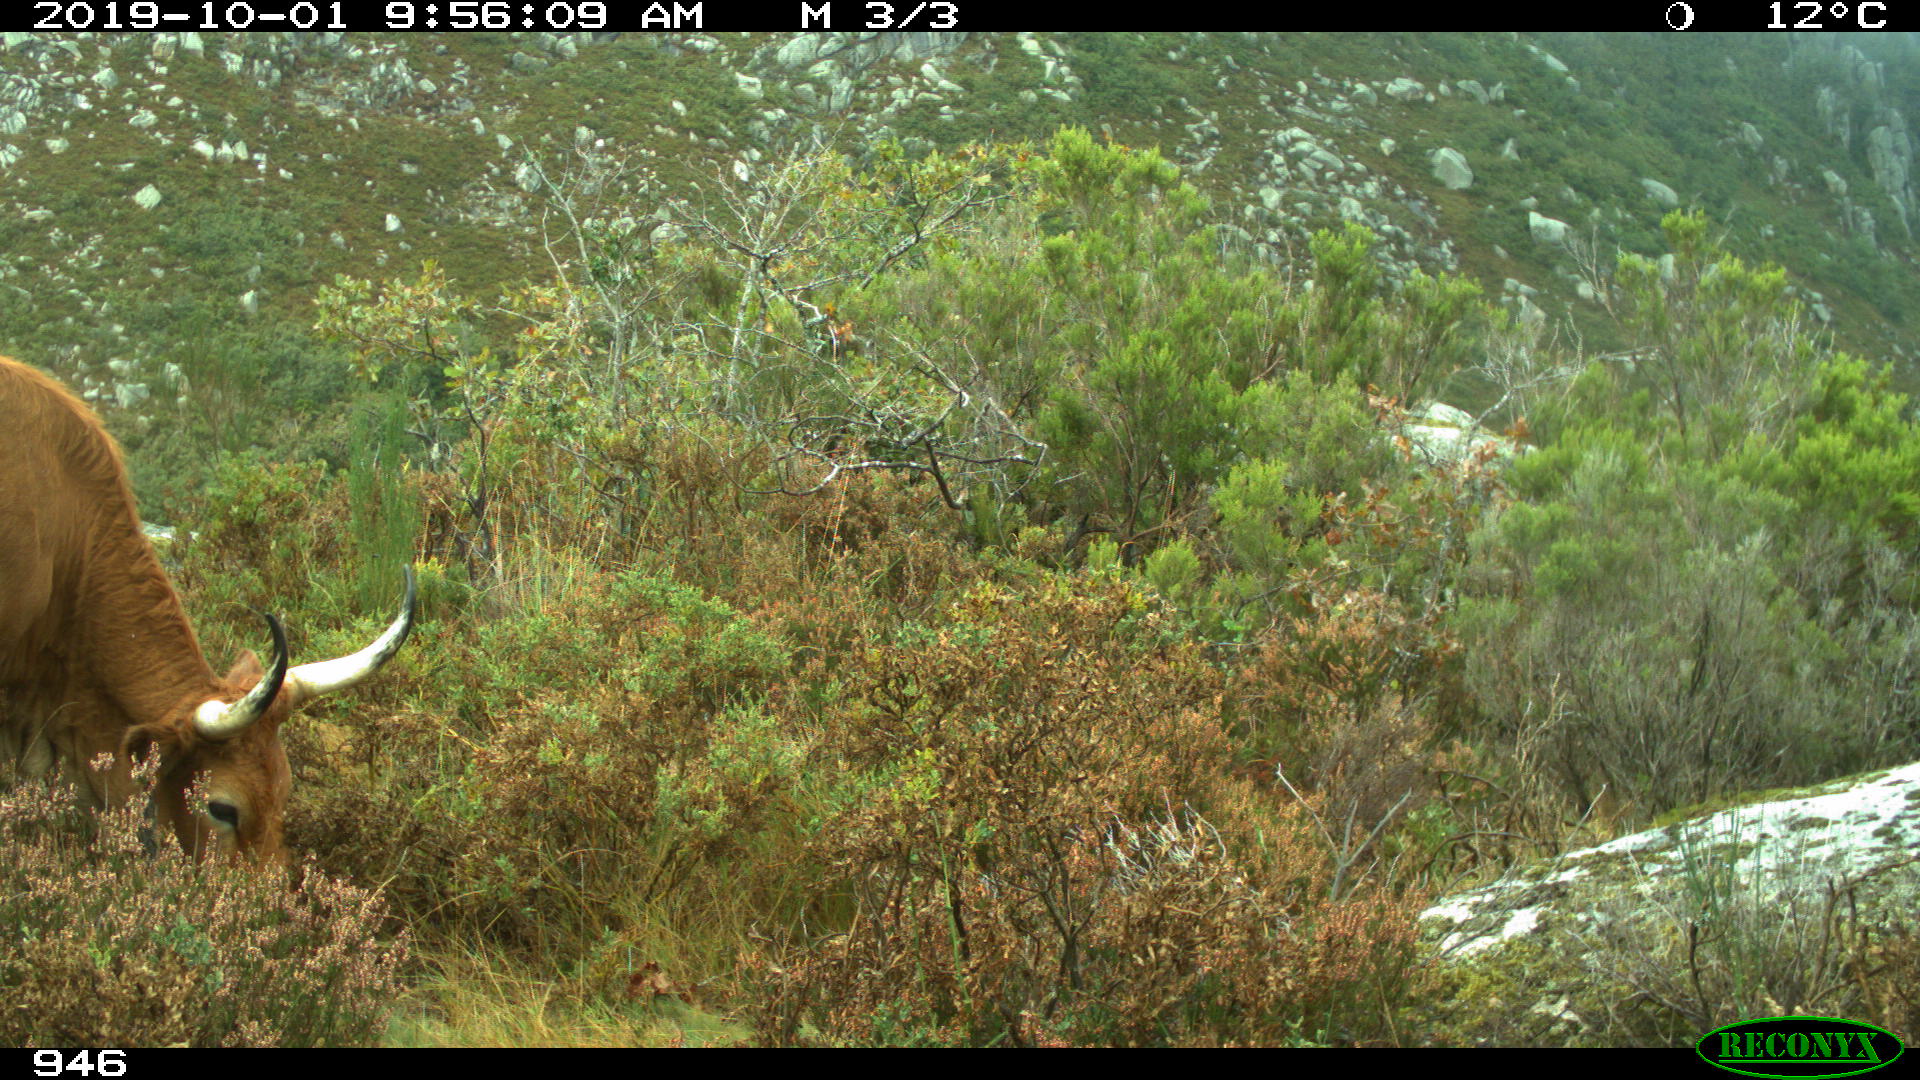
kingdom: Animalia
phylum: Chordata
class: Mammalia
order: Artiodactyla
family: Bovidae
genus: Bos
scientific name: Bos taurus
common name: Domesticated cattle
